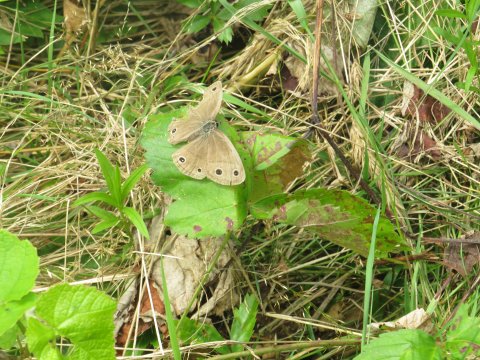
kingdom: Animalia
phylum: Arthropoda
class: Insecta
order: Lepidoptera
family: Nymphalidae
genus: Euptychia
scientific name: Euptychia cymela
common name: Little Wood Satyr
